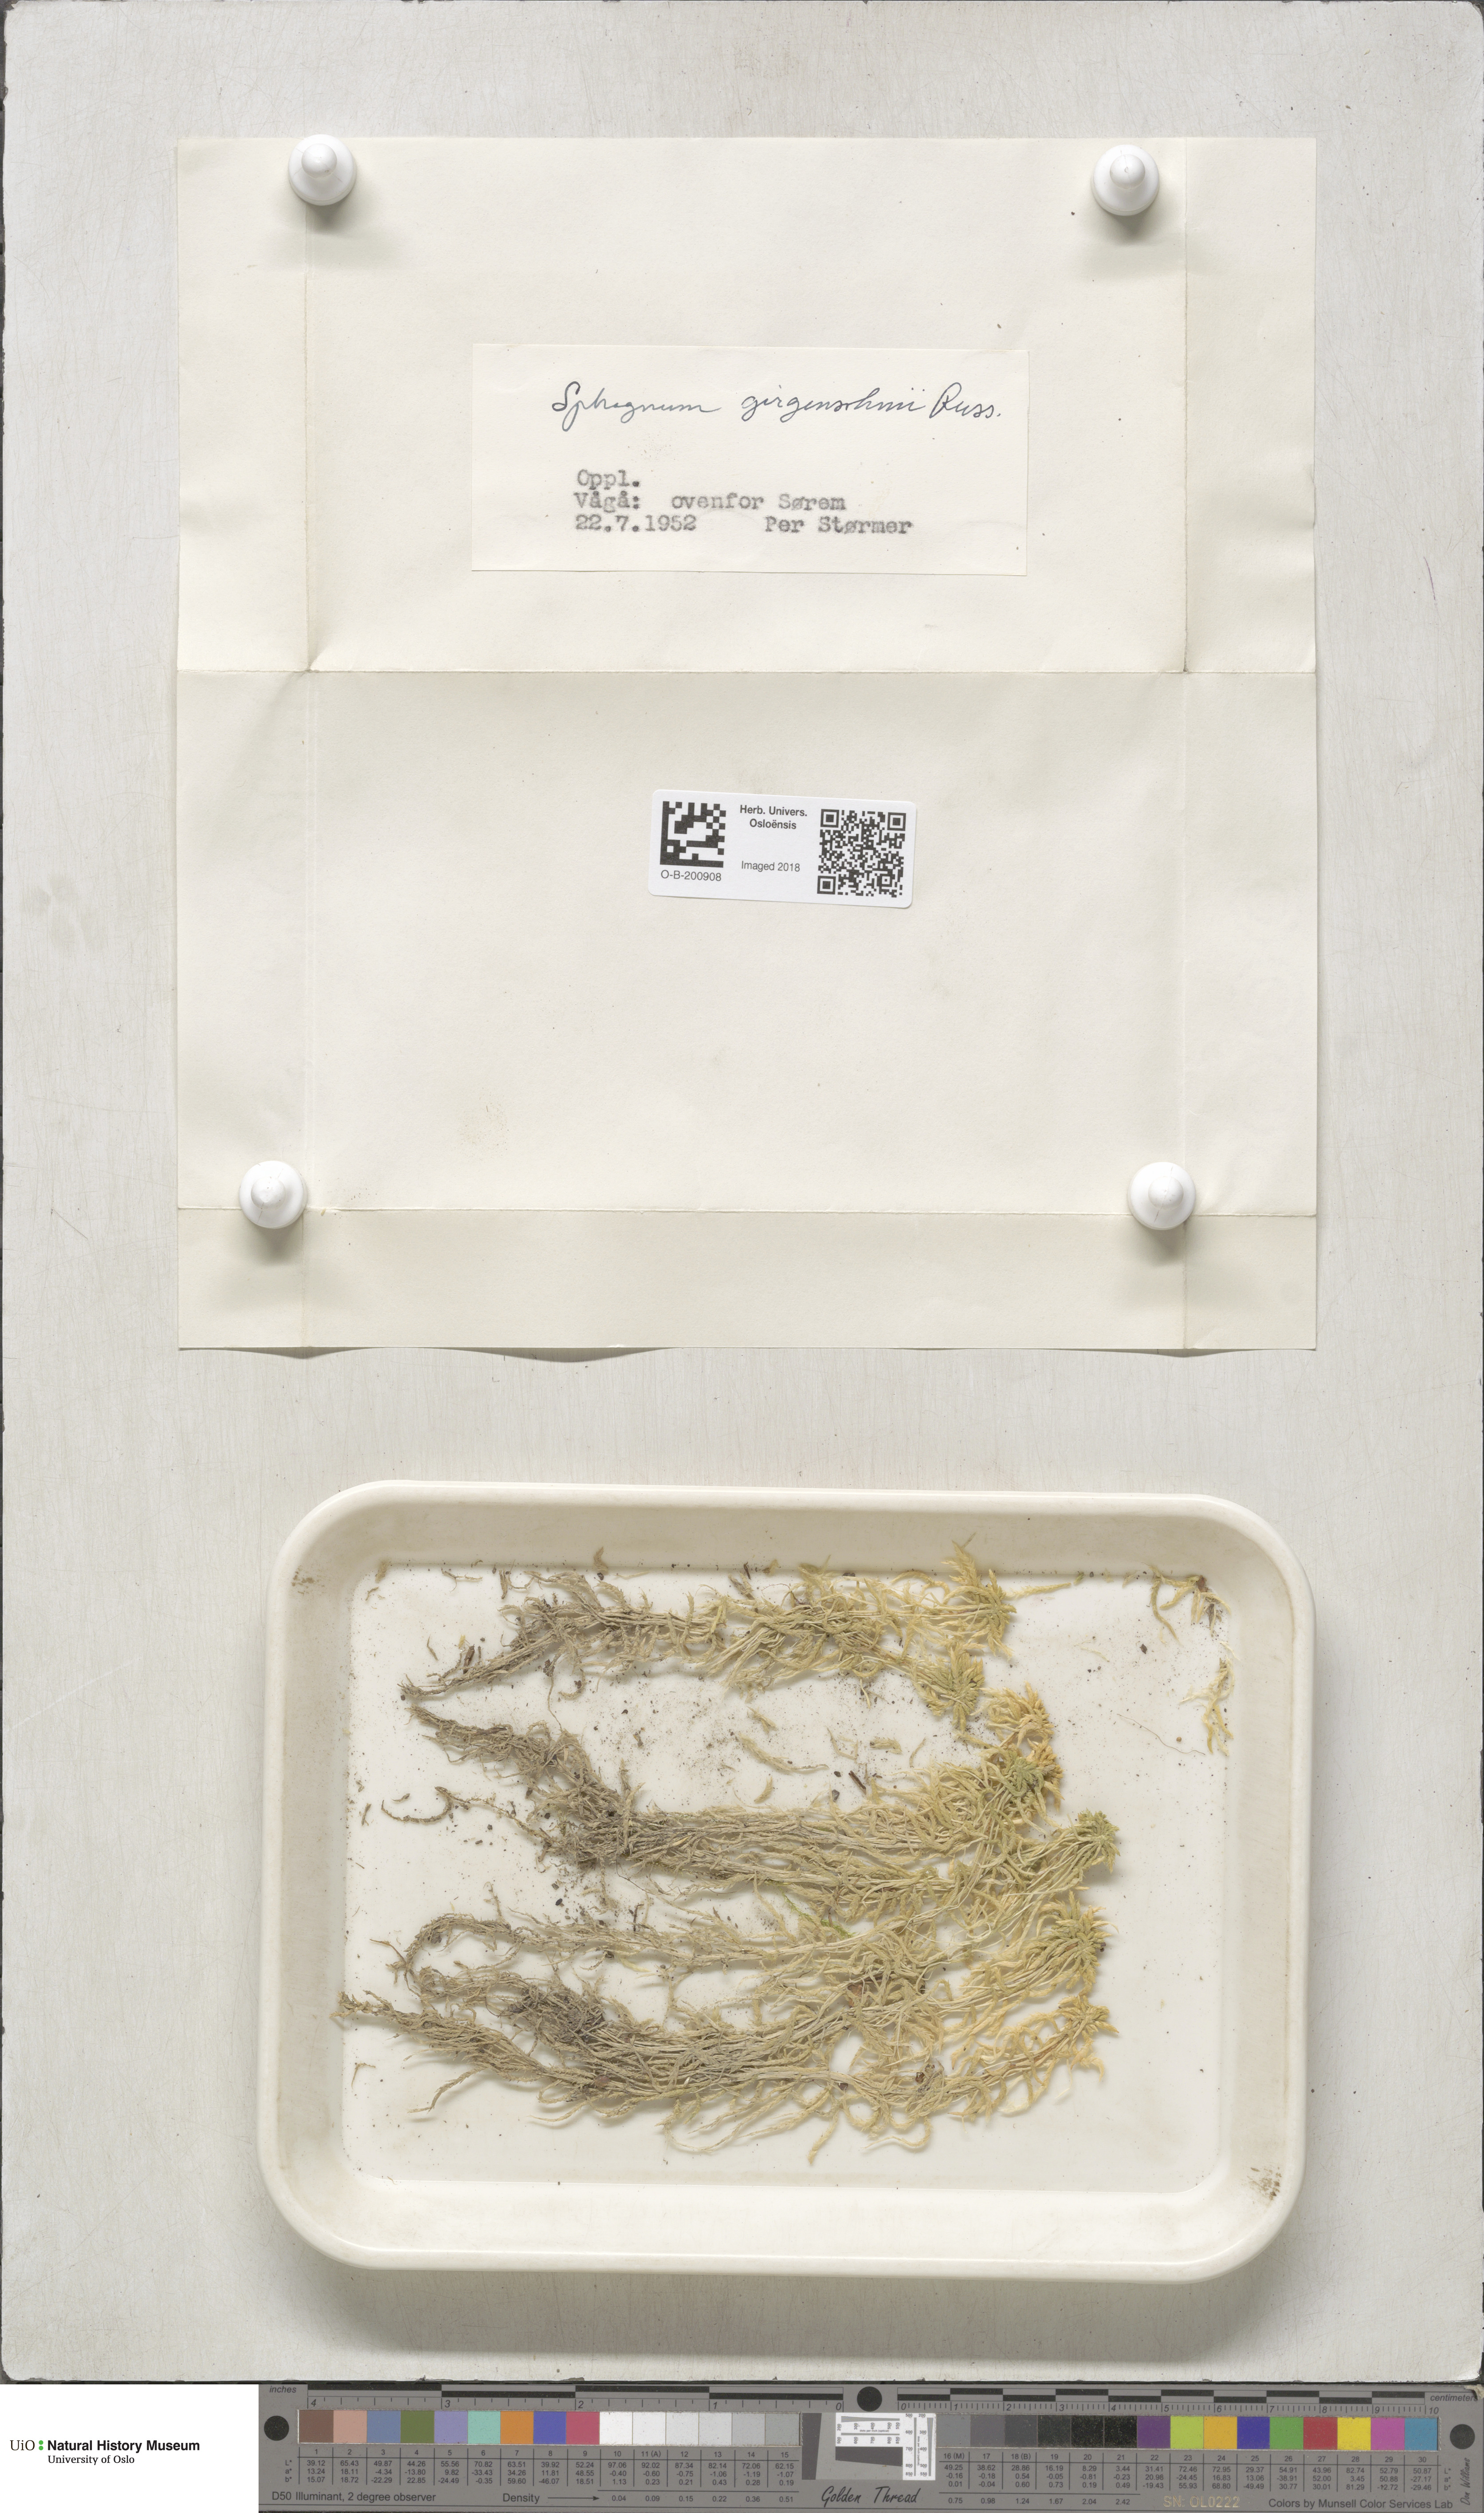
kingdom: Plantae
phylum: Bryophyta
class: Sphagnopsida
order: Sphagnales
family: Sphagnaceae
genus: Sphagnum
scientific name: Sphagnum girgensohnii
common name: Girgensohn's peat moss
